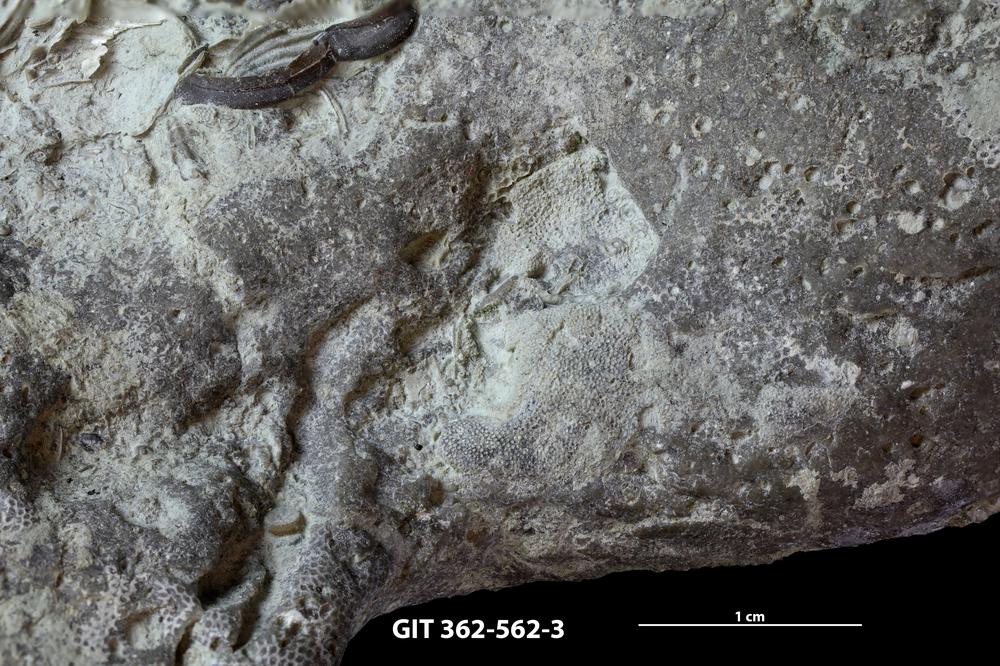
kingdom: Animalia
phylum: Bryozoa
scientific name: Bryozoa
